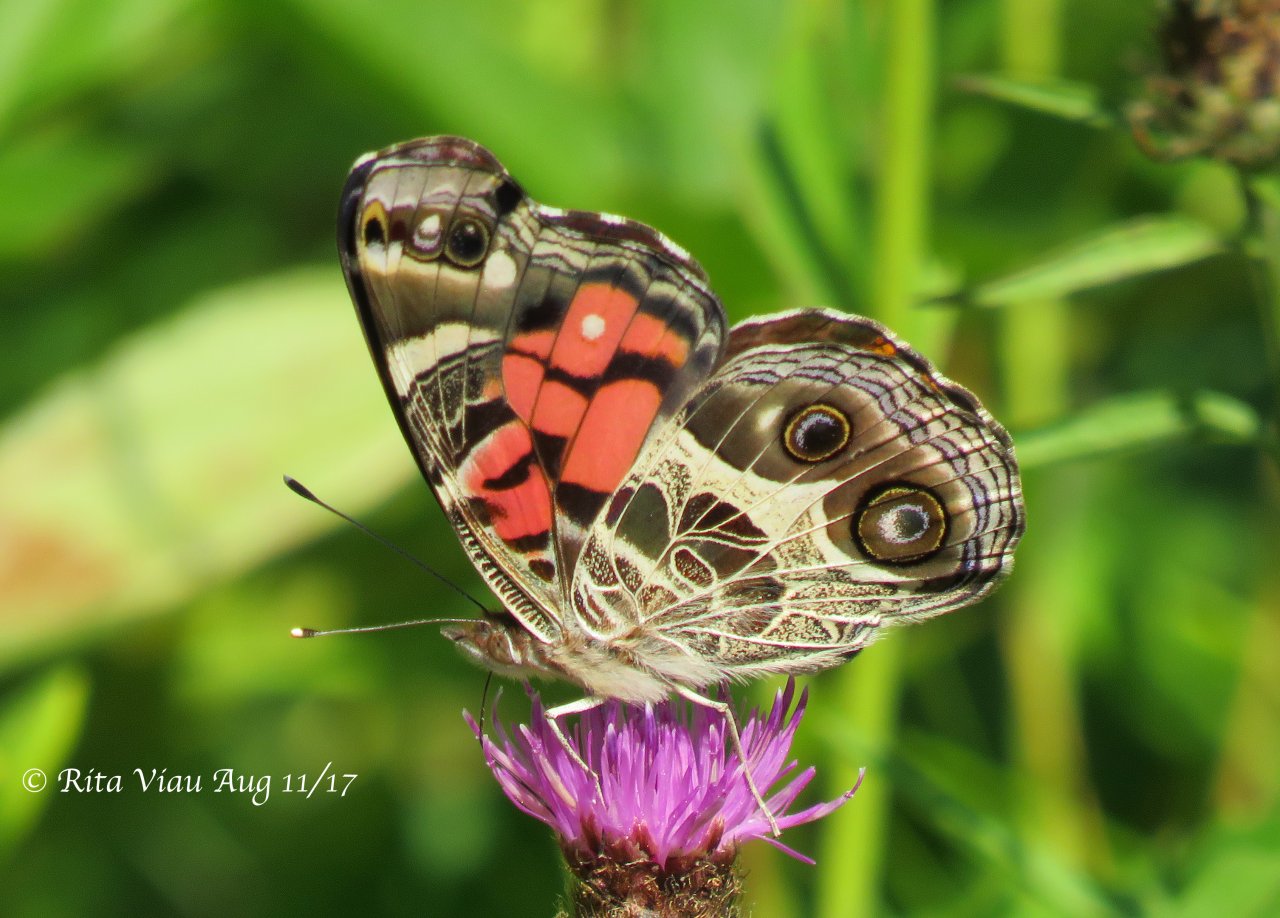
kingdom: Animalia
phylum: Arthropoda
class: Insecta
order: Lepidoptera
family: Nymphalidae
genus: Vanessa
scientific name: Vanessa virginiensis
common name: American Lady
